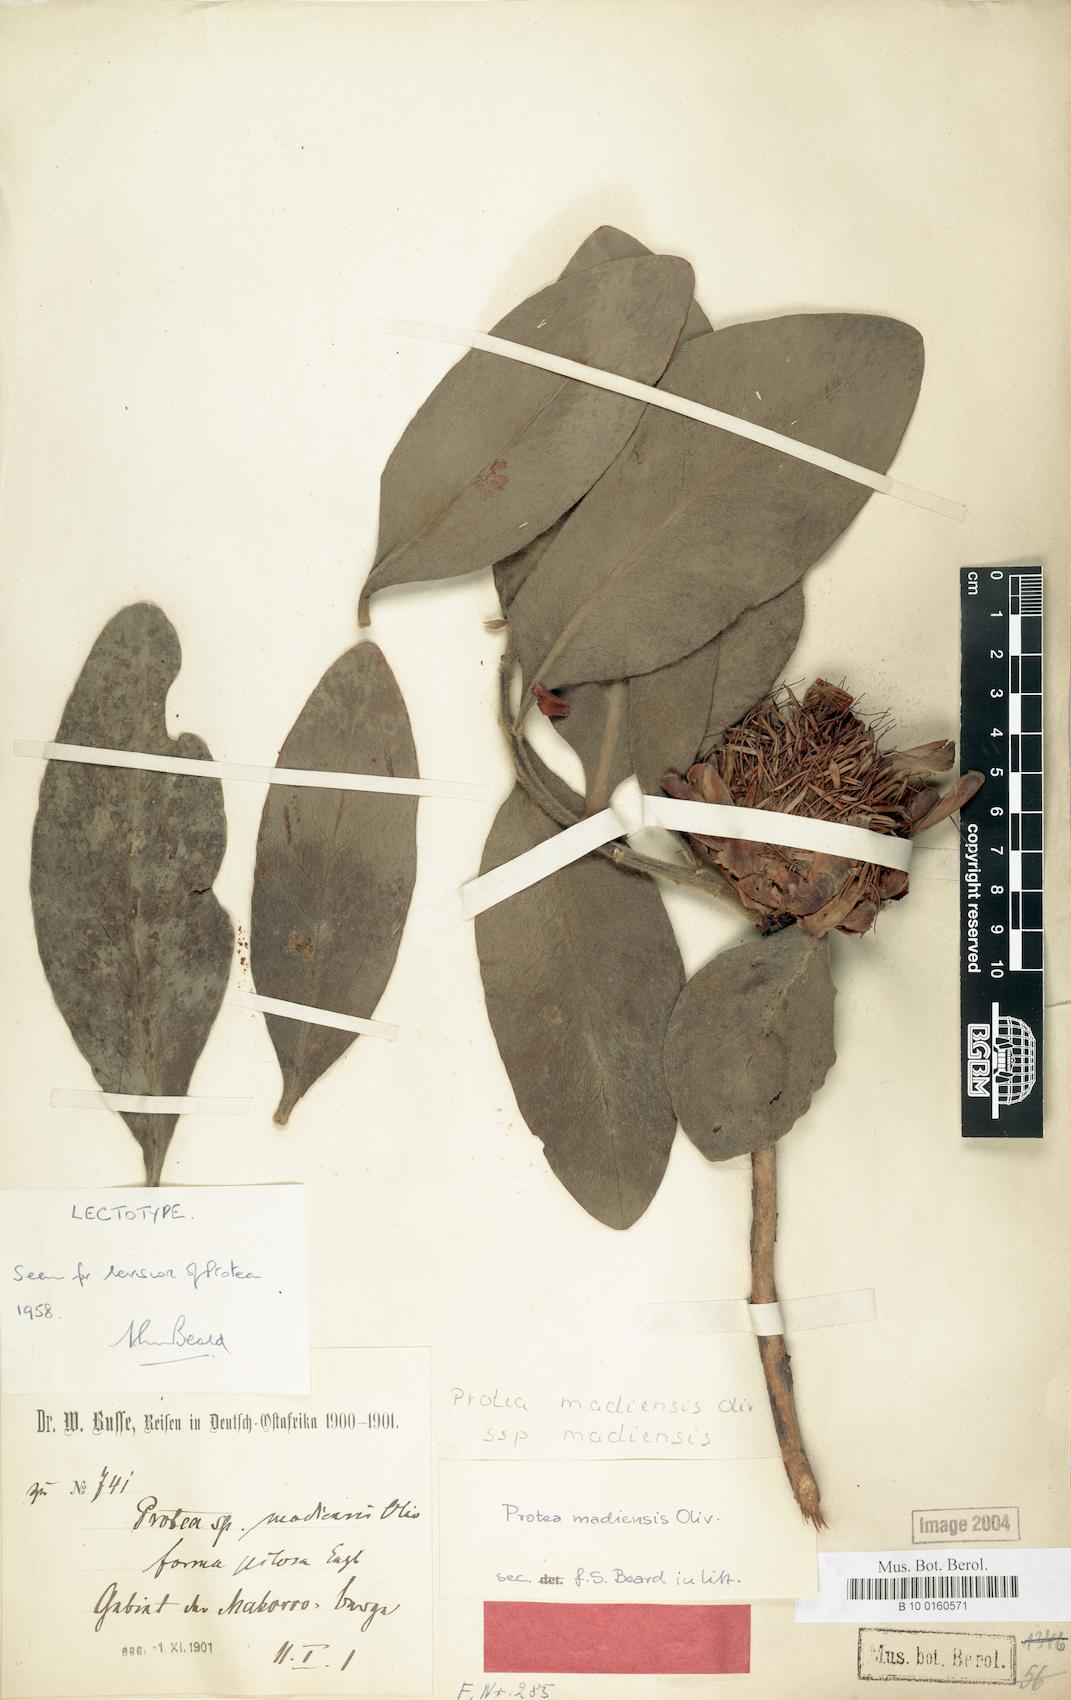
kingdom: Plantae
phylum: Tracheophyta
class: Magnoliopsida
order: Proteales
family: Proteaceae
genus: Protea
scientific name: Protea madiensis
